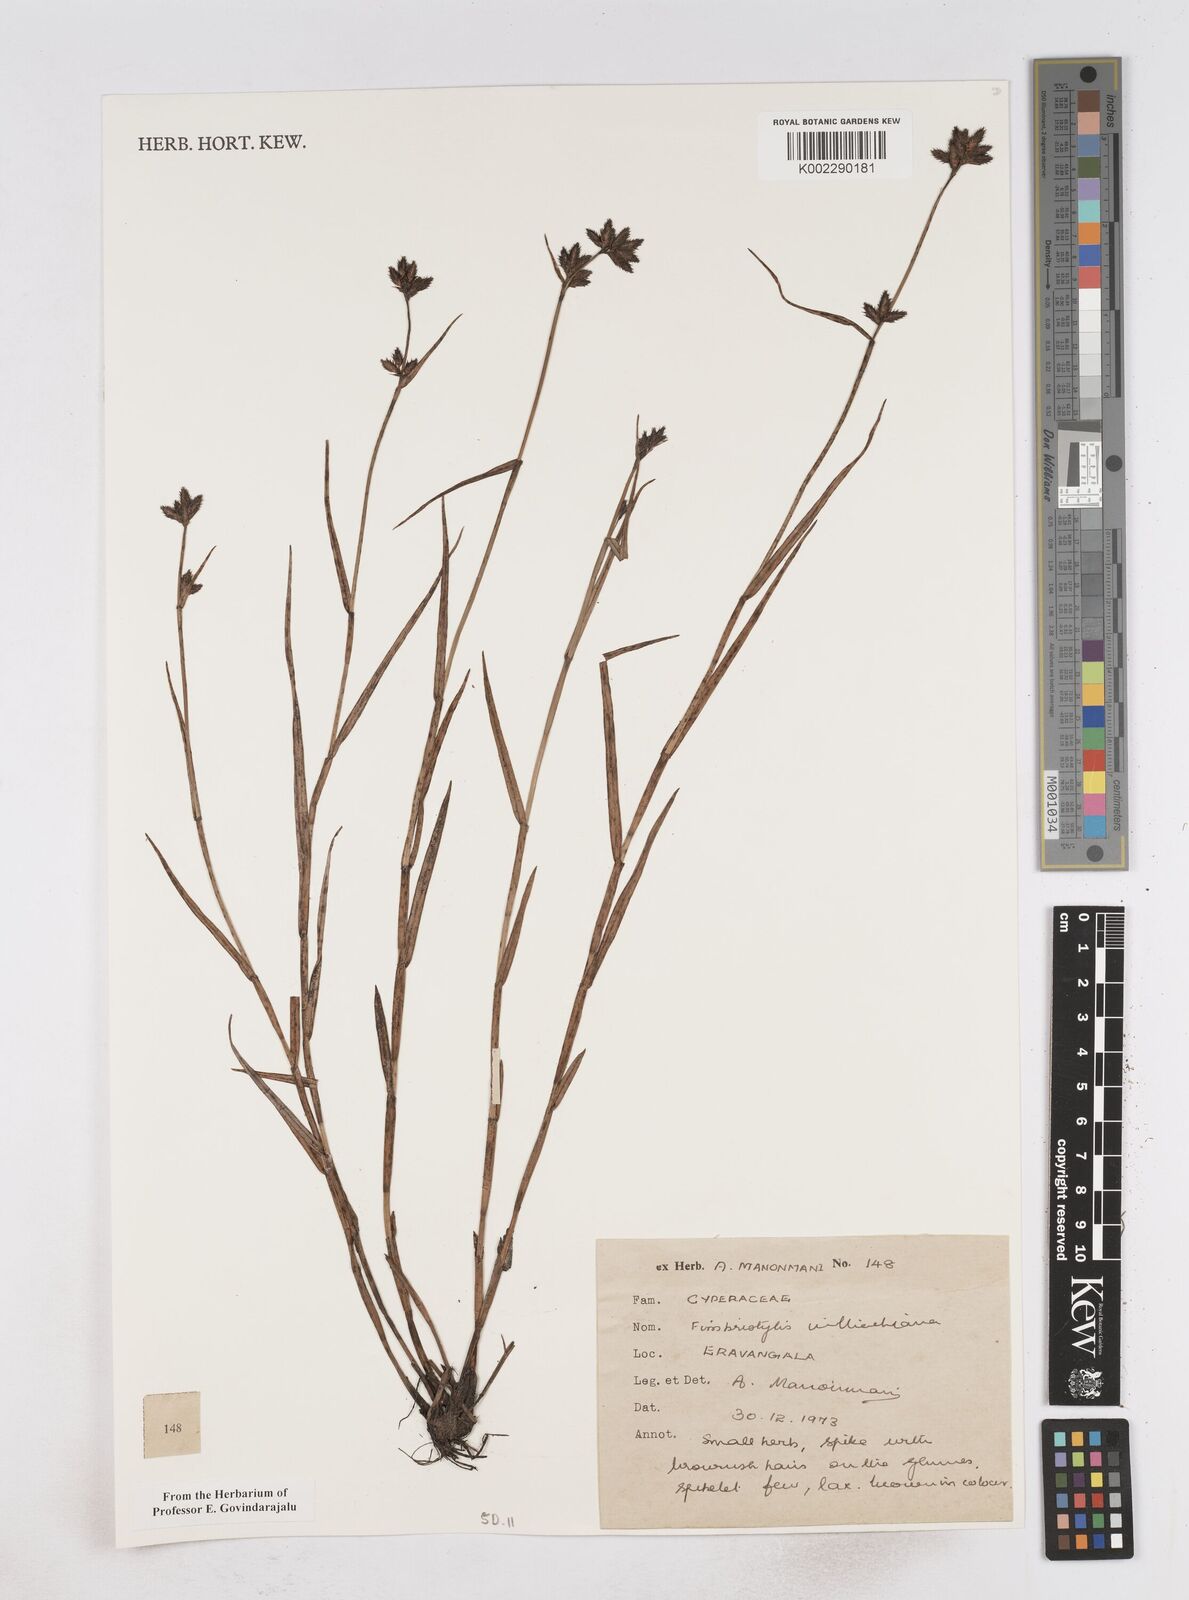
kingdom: Plantae
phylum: Tracheophyta
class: Liliopsida
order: Poales
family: Cyperaceae
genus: Fimbristylis
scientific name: Fimbristylis willdenowiana
